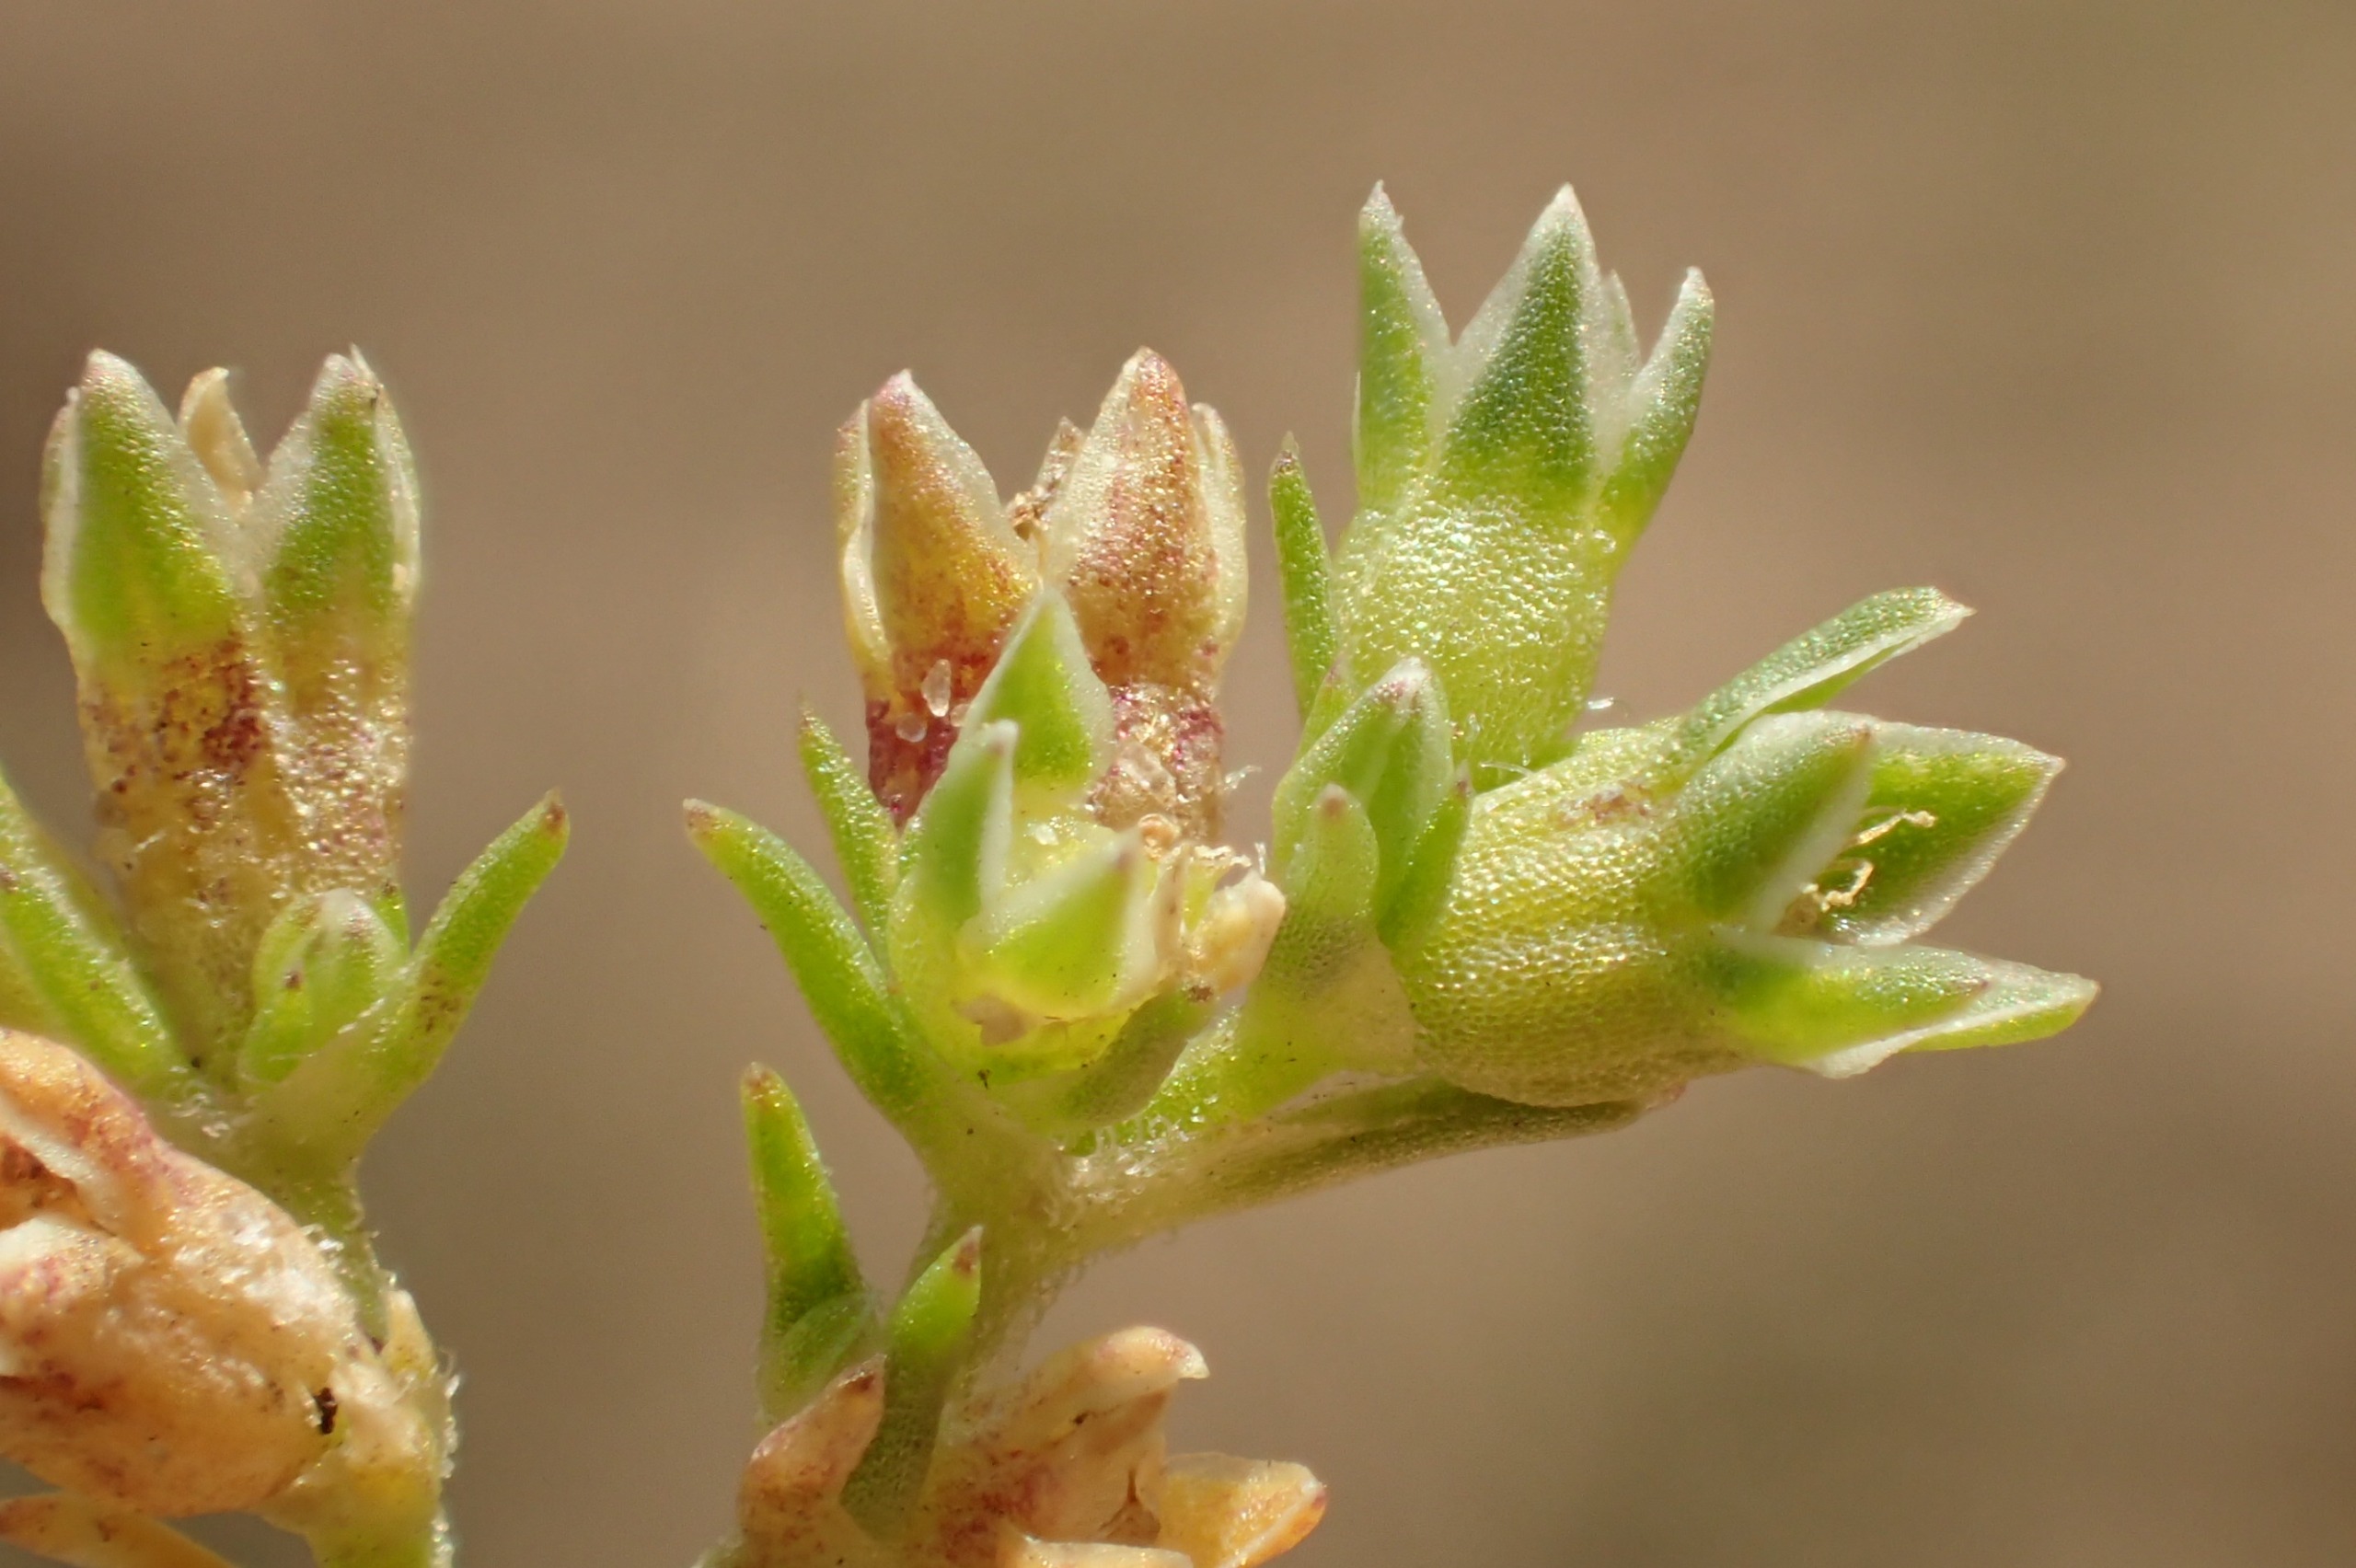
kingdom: Plantae
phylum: Tracheophyta
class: Magnoliopsida
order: Caryophyllales
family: Caryophyllaceae
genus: Scleranthus
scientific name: Scleranthus annuus
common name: Enårig knavel
